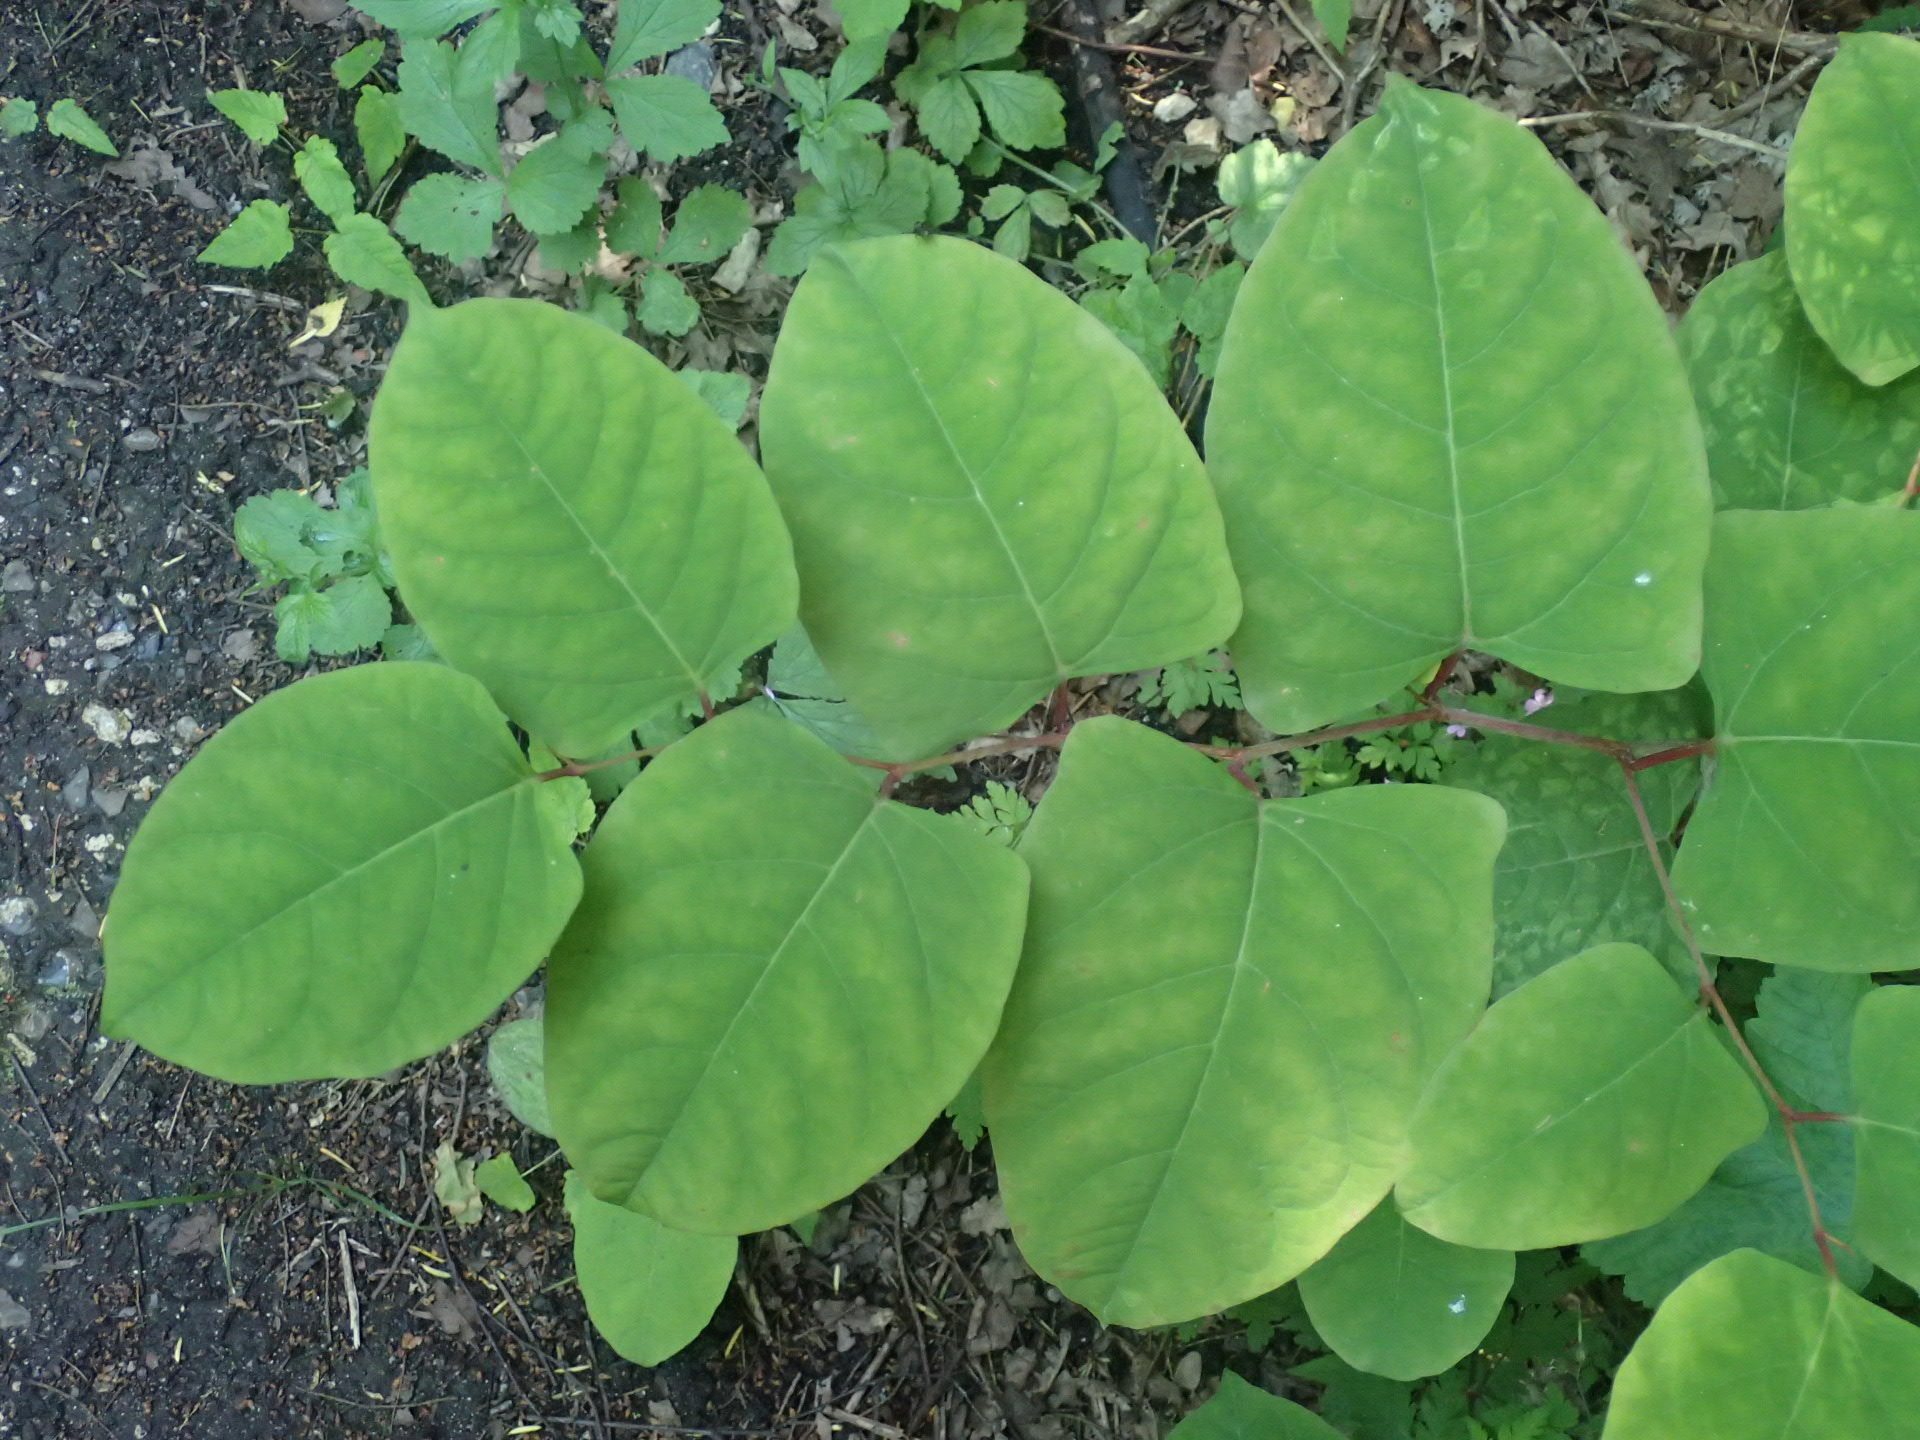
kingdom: Plantae
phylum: Tracheophyta
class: Magnoliopsida
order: Caryophyllales
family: Polygonaceae
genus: Reynoutria
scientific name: Reynoutria bohemica
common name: Hybrid-pileurt
